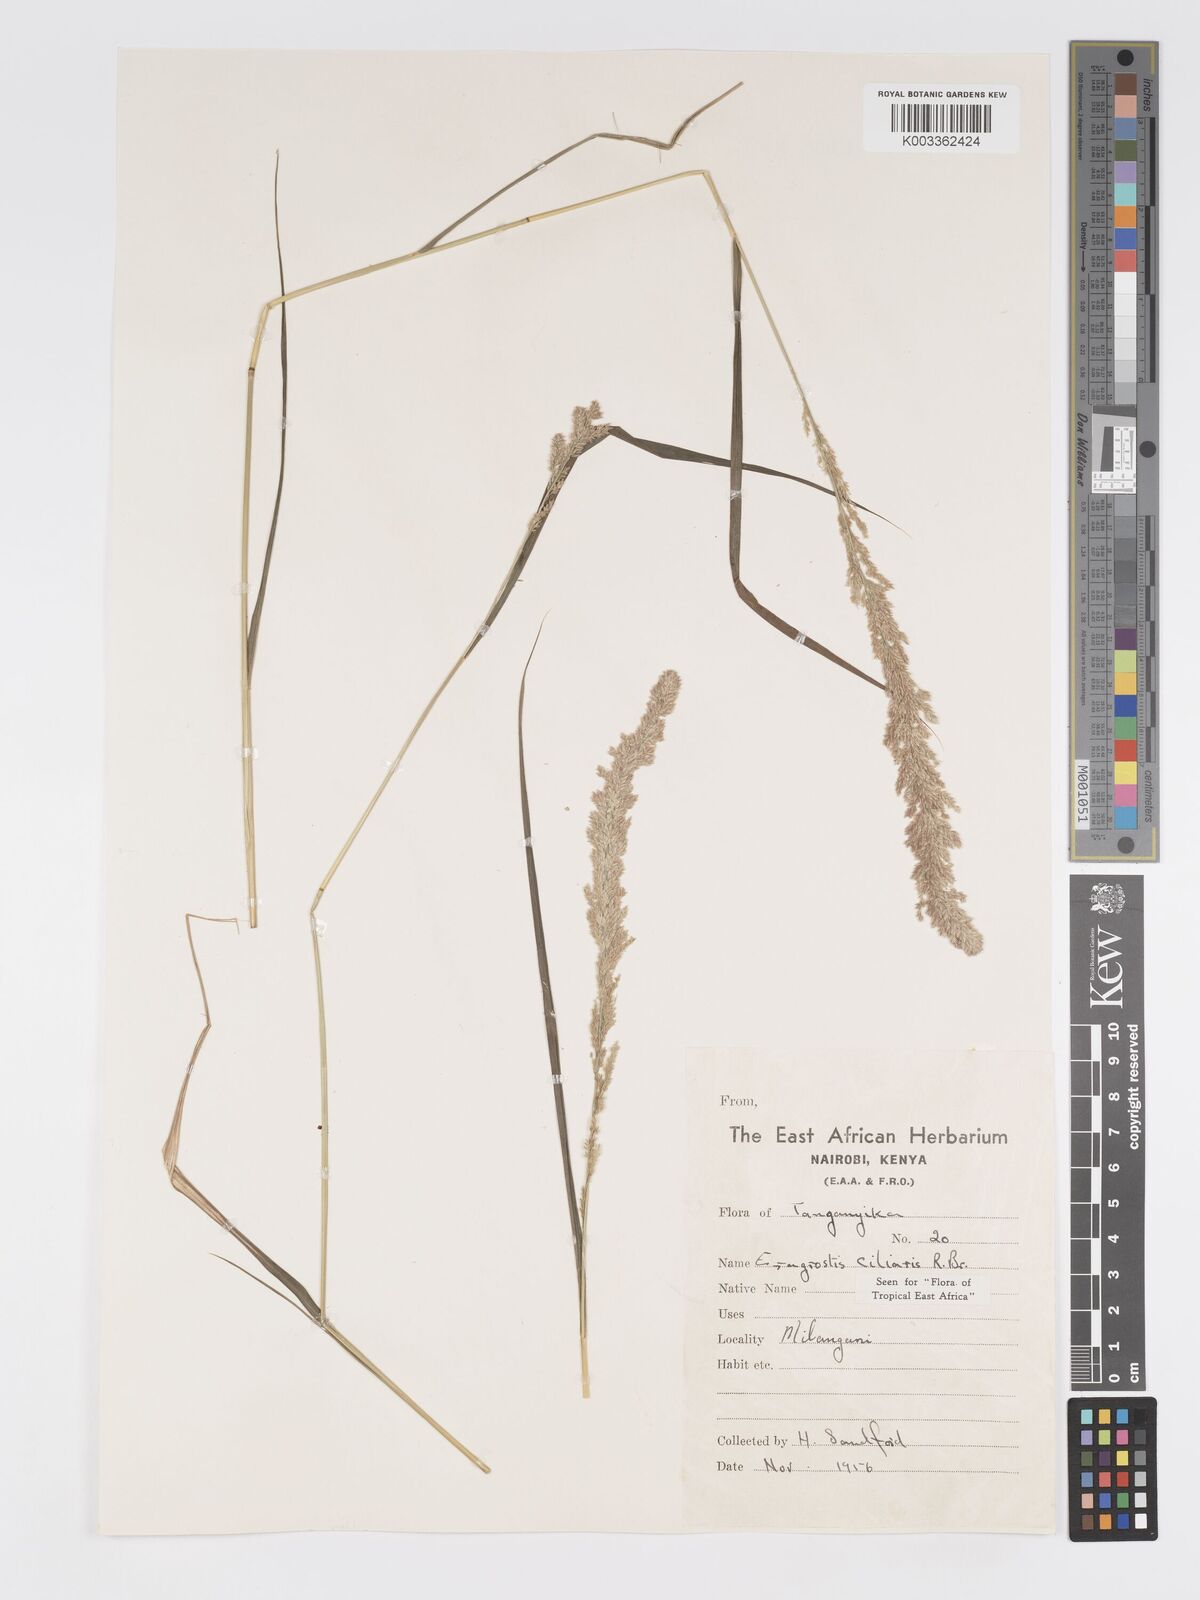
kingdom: Plantae
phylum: Tracheophyta
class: Liliopsida
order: Poales
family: Poaceae
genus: Eragrostis
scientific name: Eragrostis ciliaris
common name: Gophertail lovegrass
